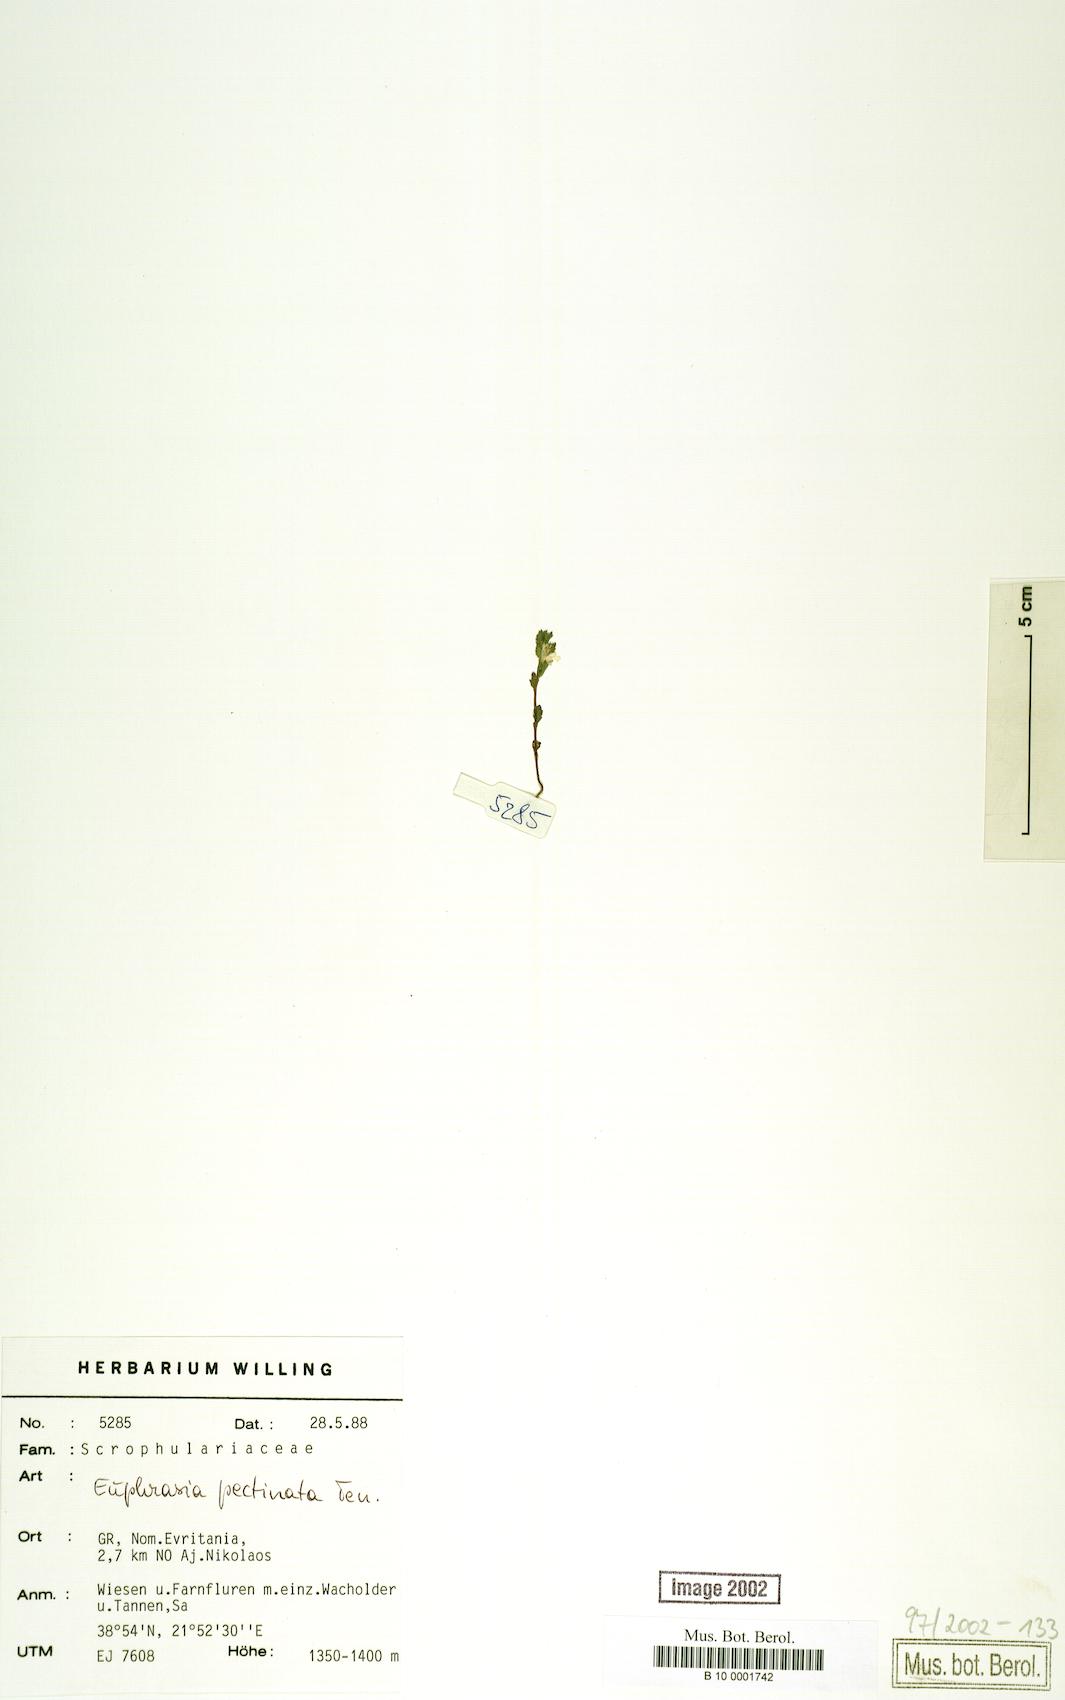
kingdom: Plantae
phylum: Tracheophyta
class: Magnoliopsida
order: Lamiales
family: Orobanchaceae
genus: Euphrasia
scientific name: Euphrasia pectinata
